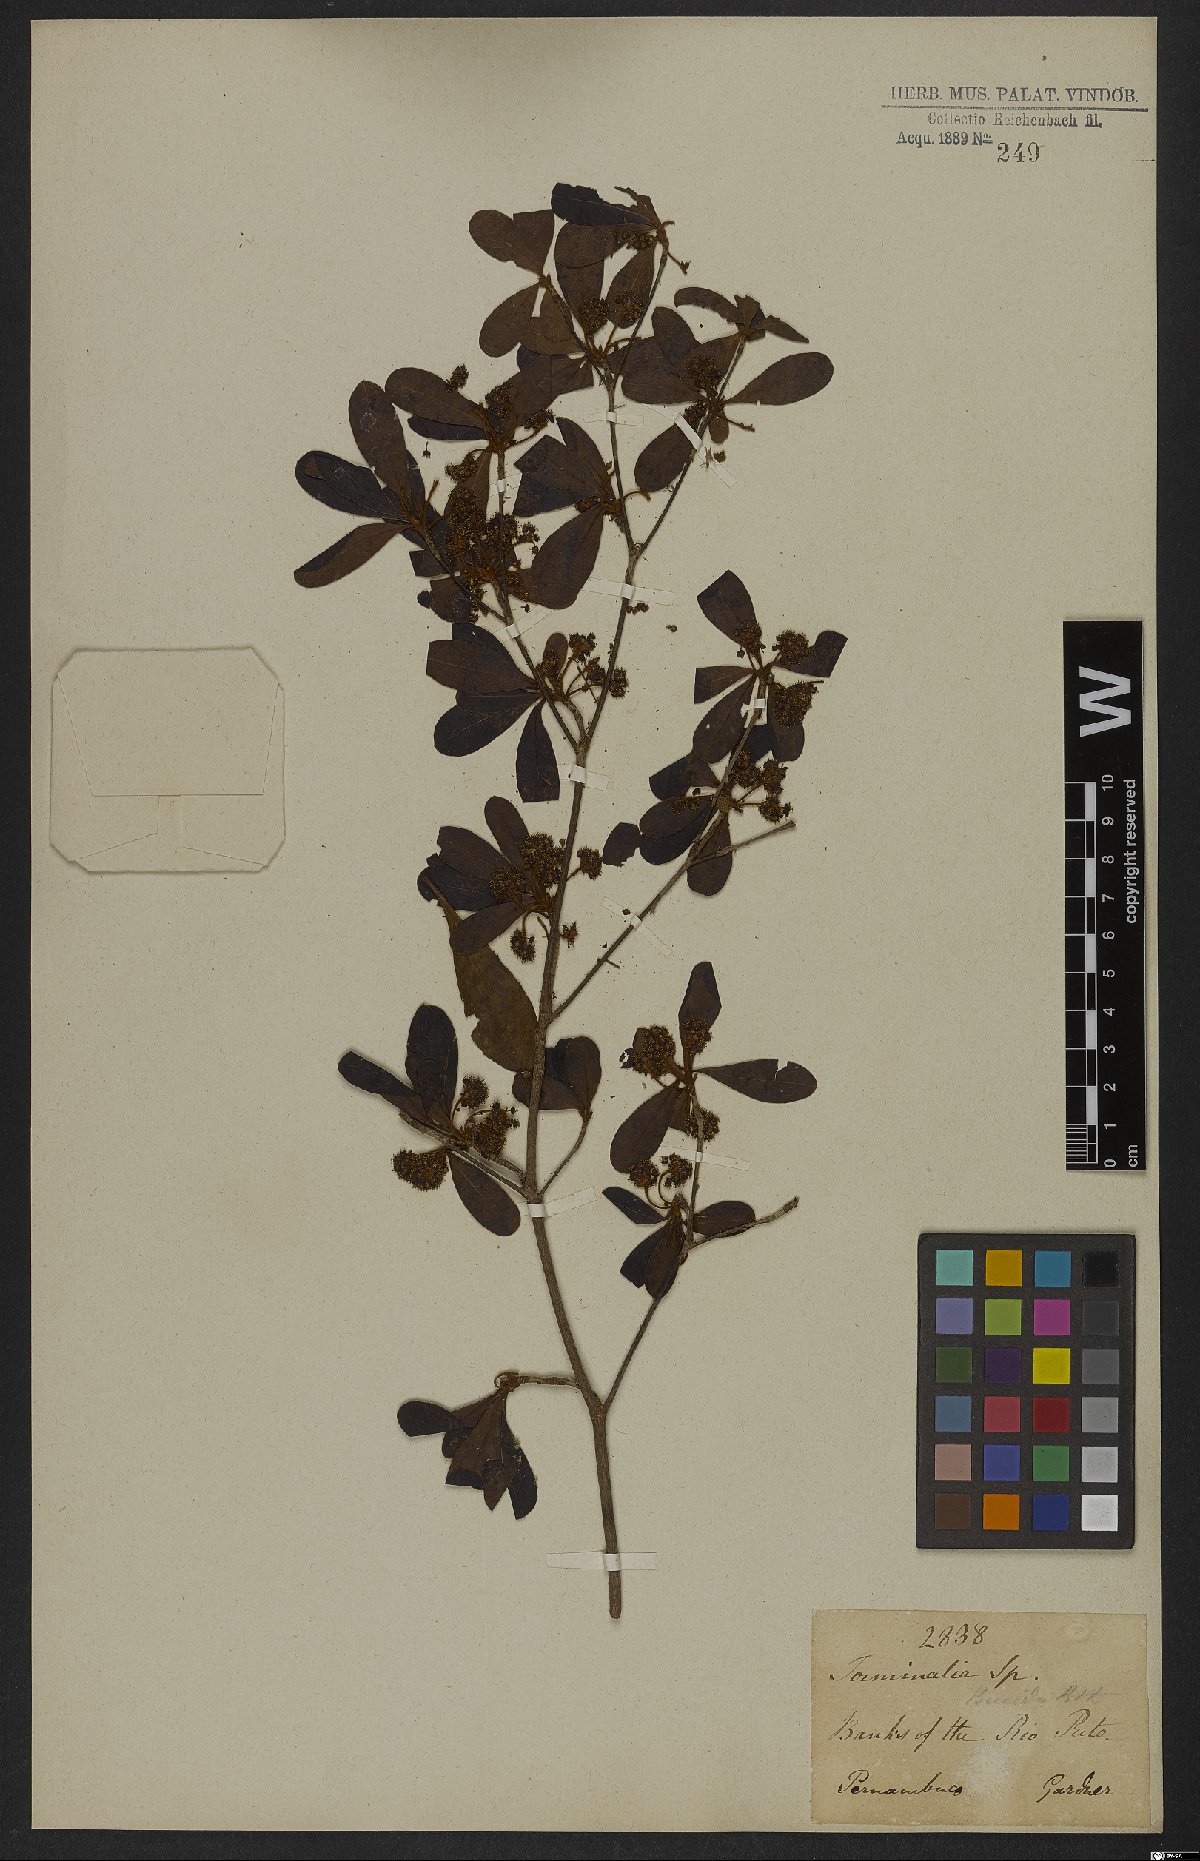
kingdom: Plantae
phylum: Tracheophyta
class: Magnoliopsida
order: Myrtales
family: Combretaceae
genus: Terminalia
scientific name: Terminalia lucida
